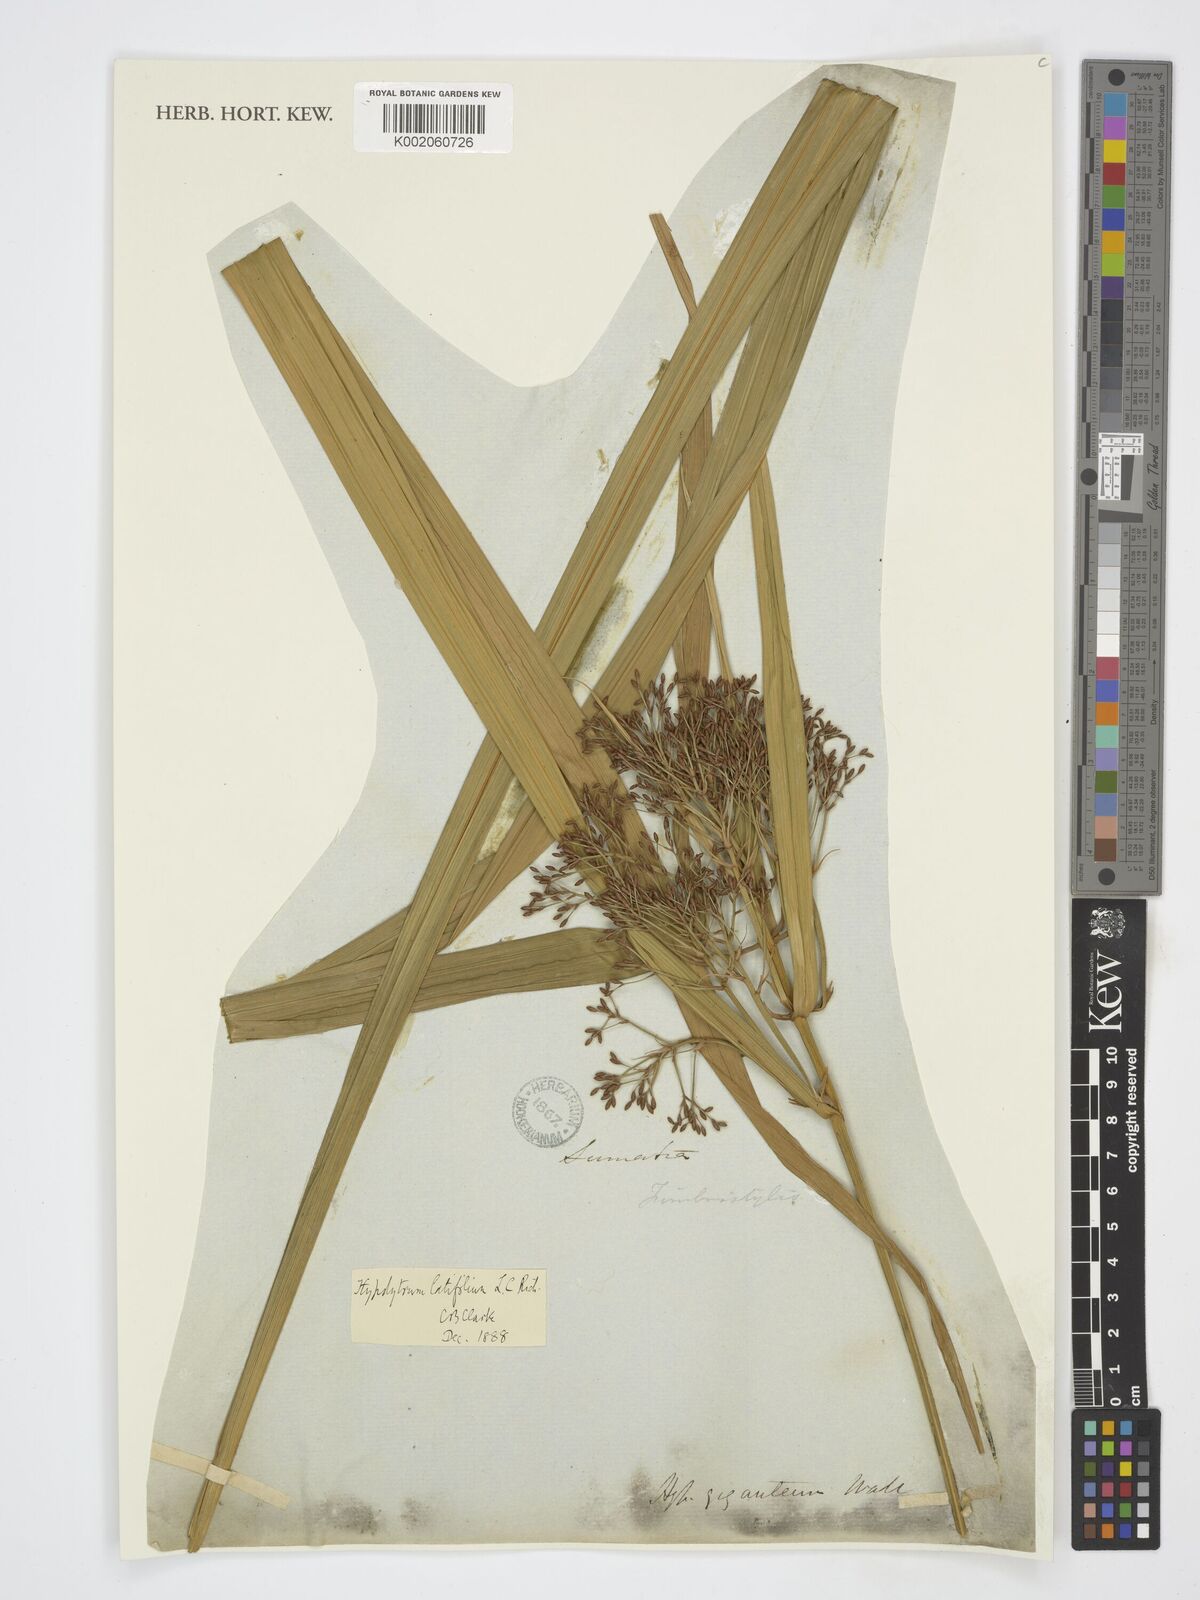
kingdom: Plantae
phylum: Tracheophyta
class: Liliopsida
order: Poales
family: Cyperaceae
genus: Hypolytrum
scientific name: Hypolytrum nemorum
